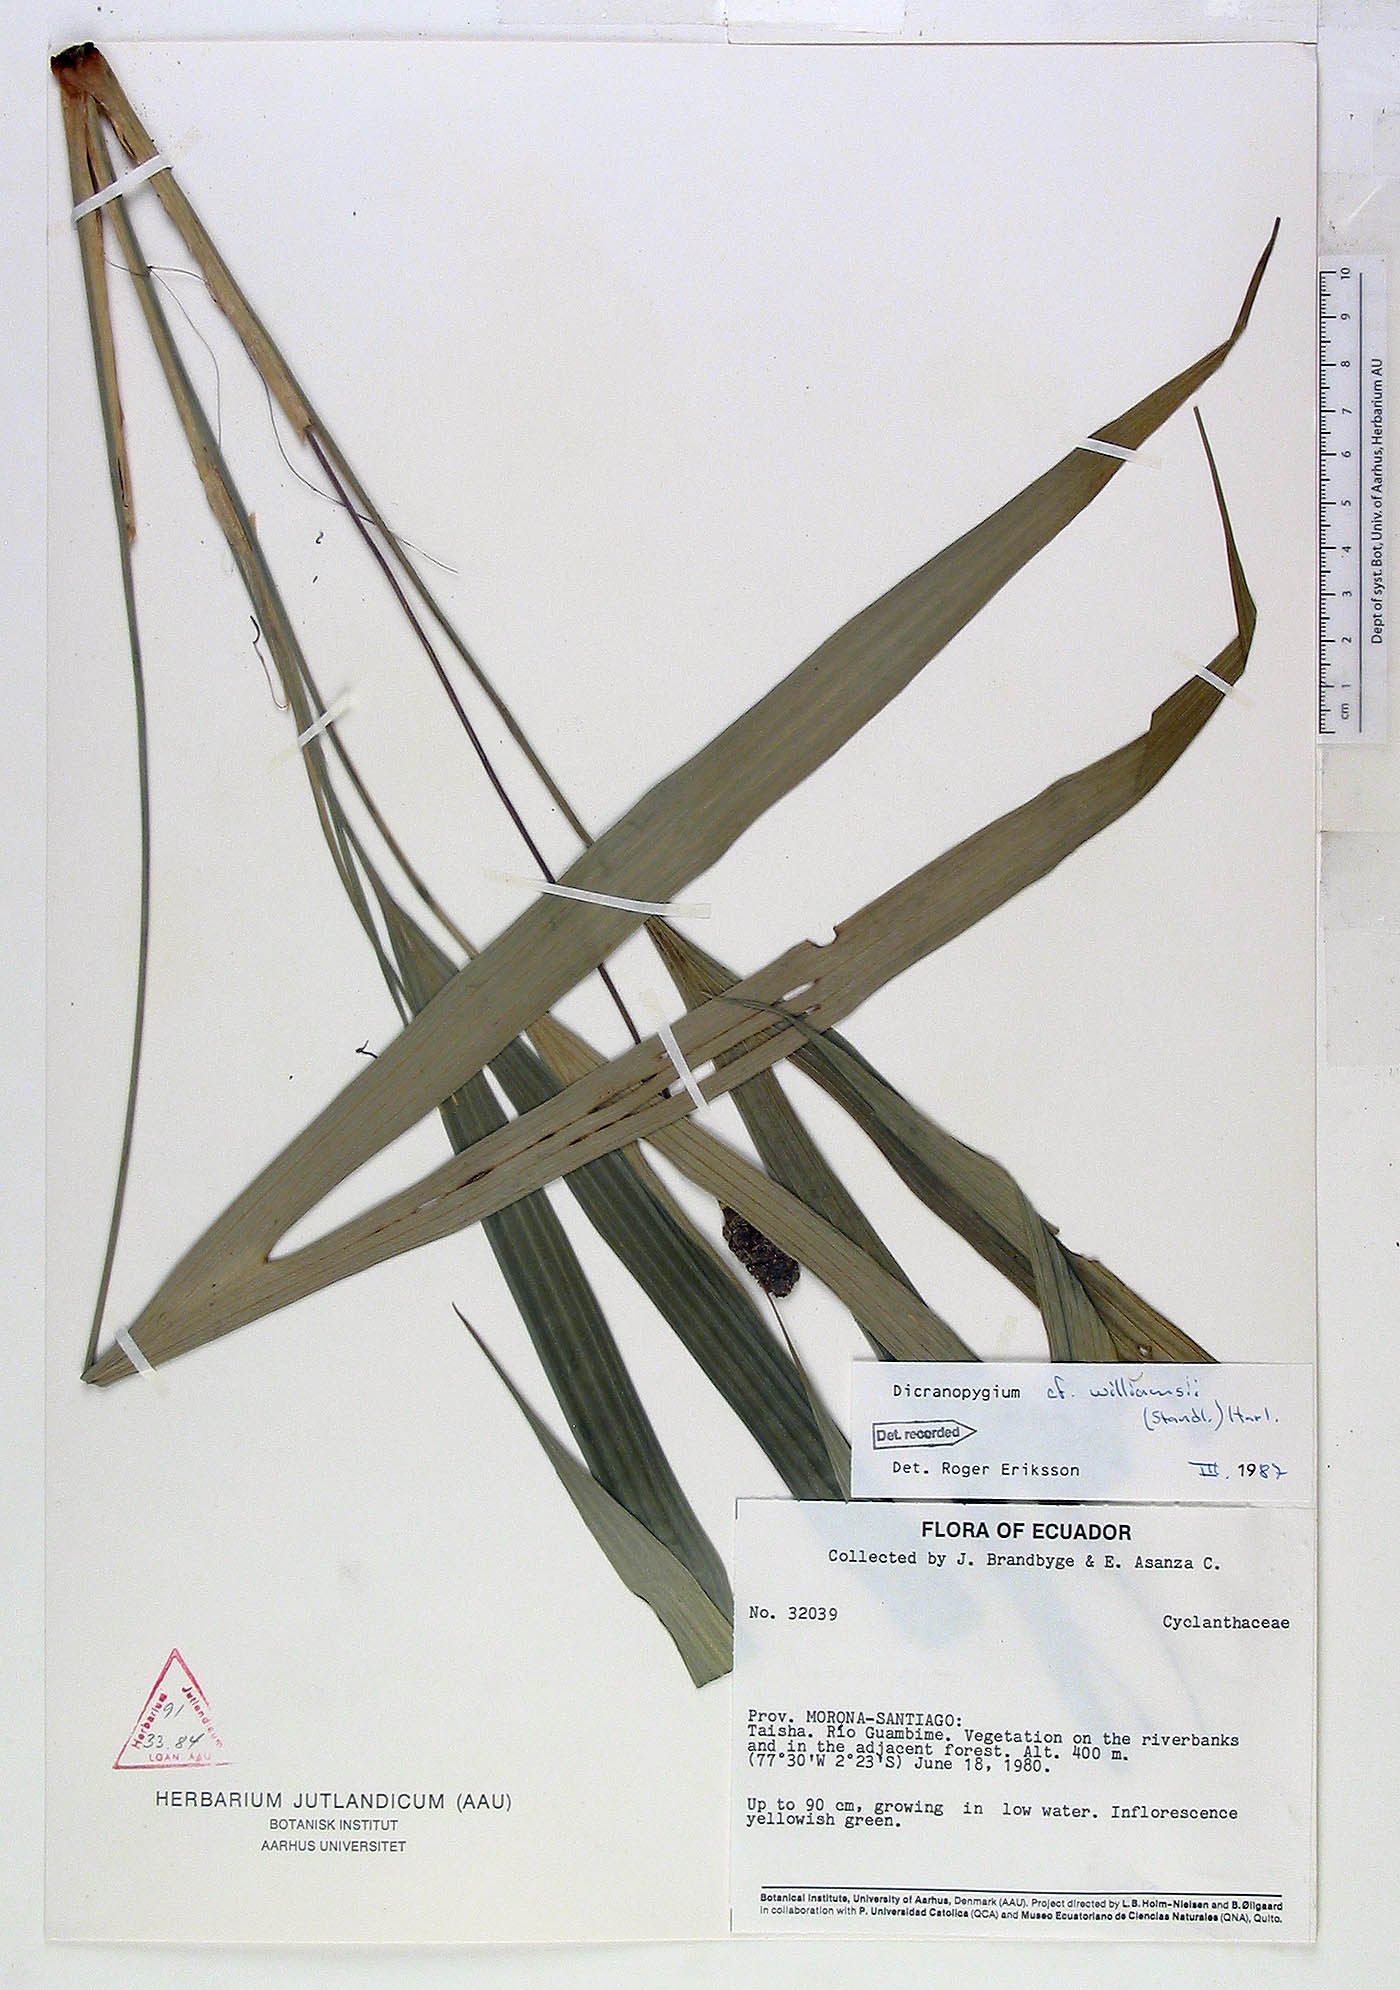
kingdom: Plantae
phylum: Tracheophyta
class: Liliopsida
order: Pandanales
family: Cyclanthaceae
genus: Dicranopygium
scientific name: Dicranopygium williamsii
